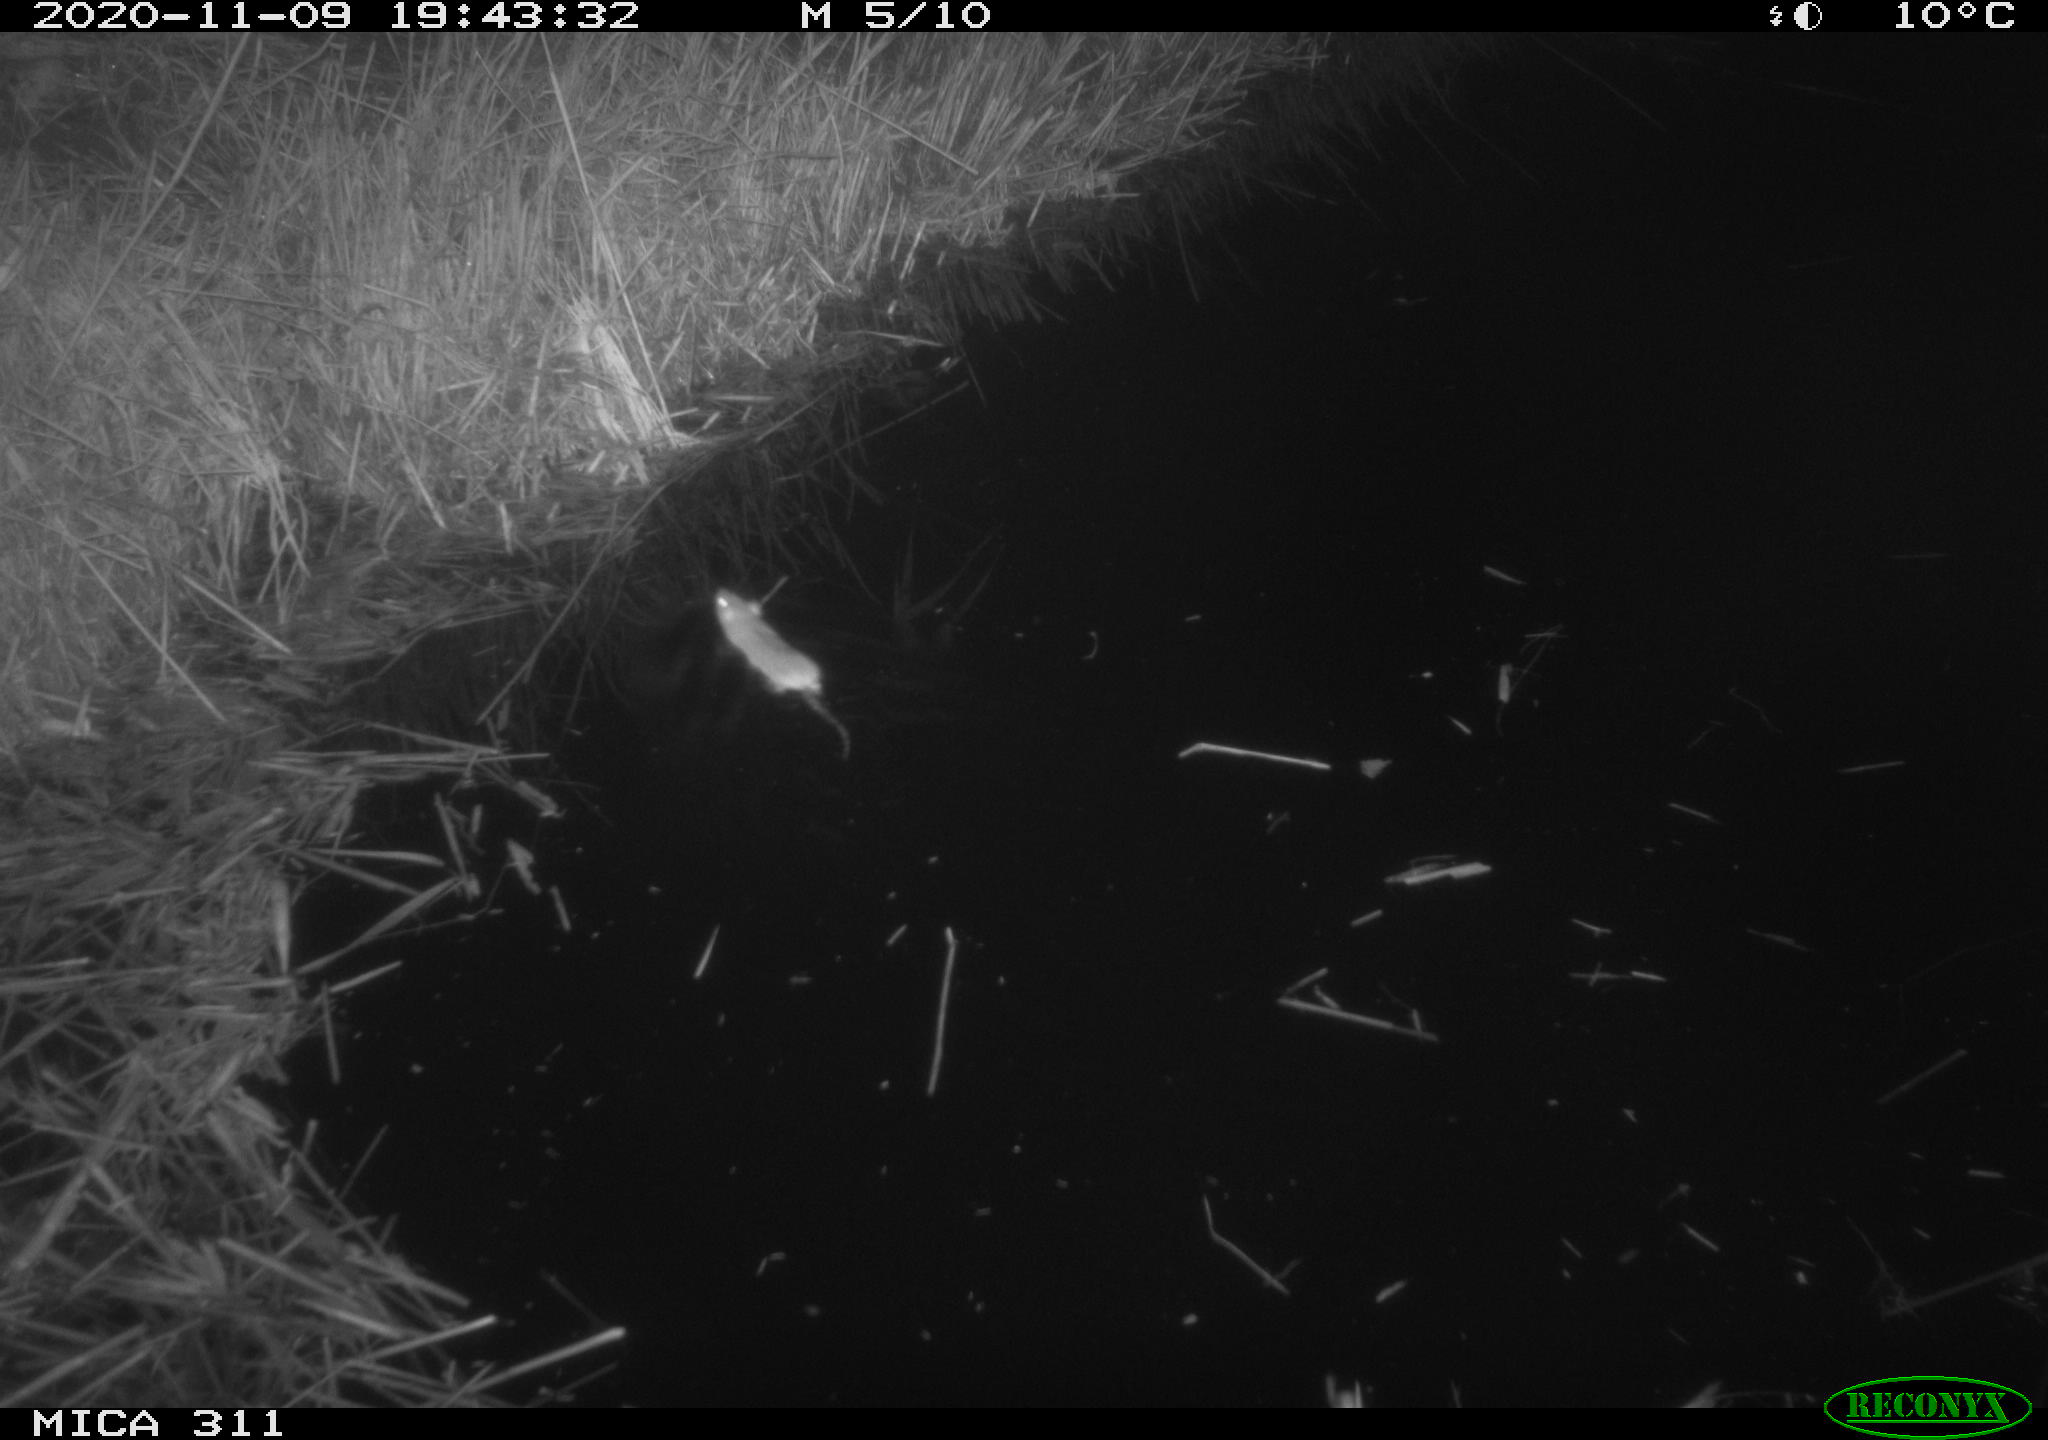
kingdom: Animalia
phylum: Chordata
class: Mammalia
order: Rodentia
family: Muridae
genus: Rattus
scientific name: Rattus norvegicus
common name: Brown rat
